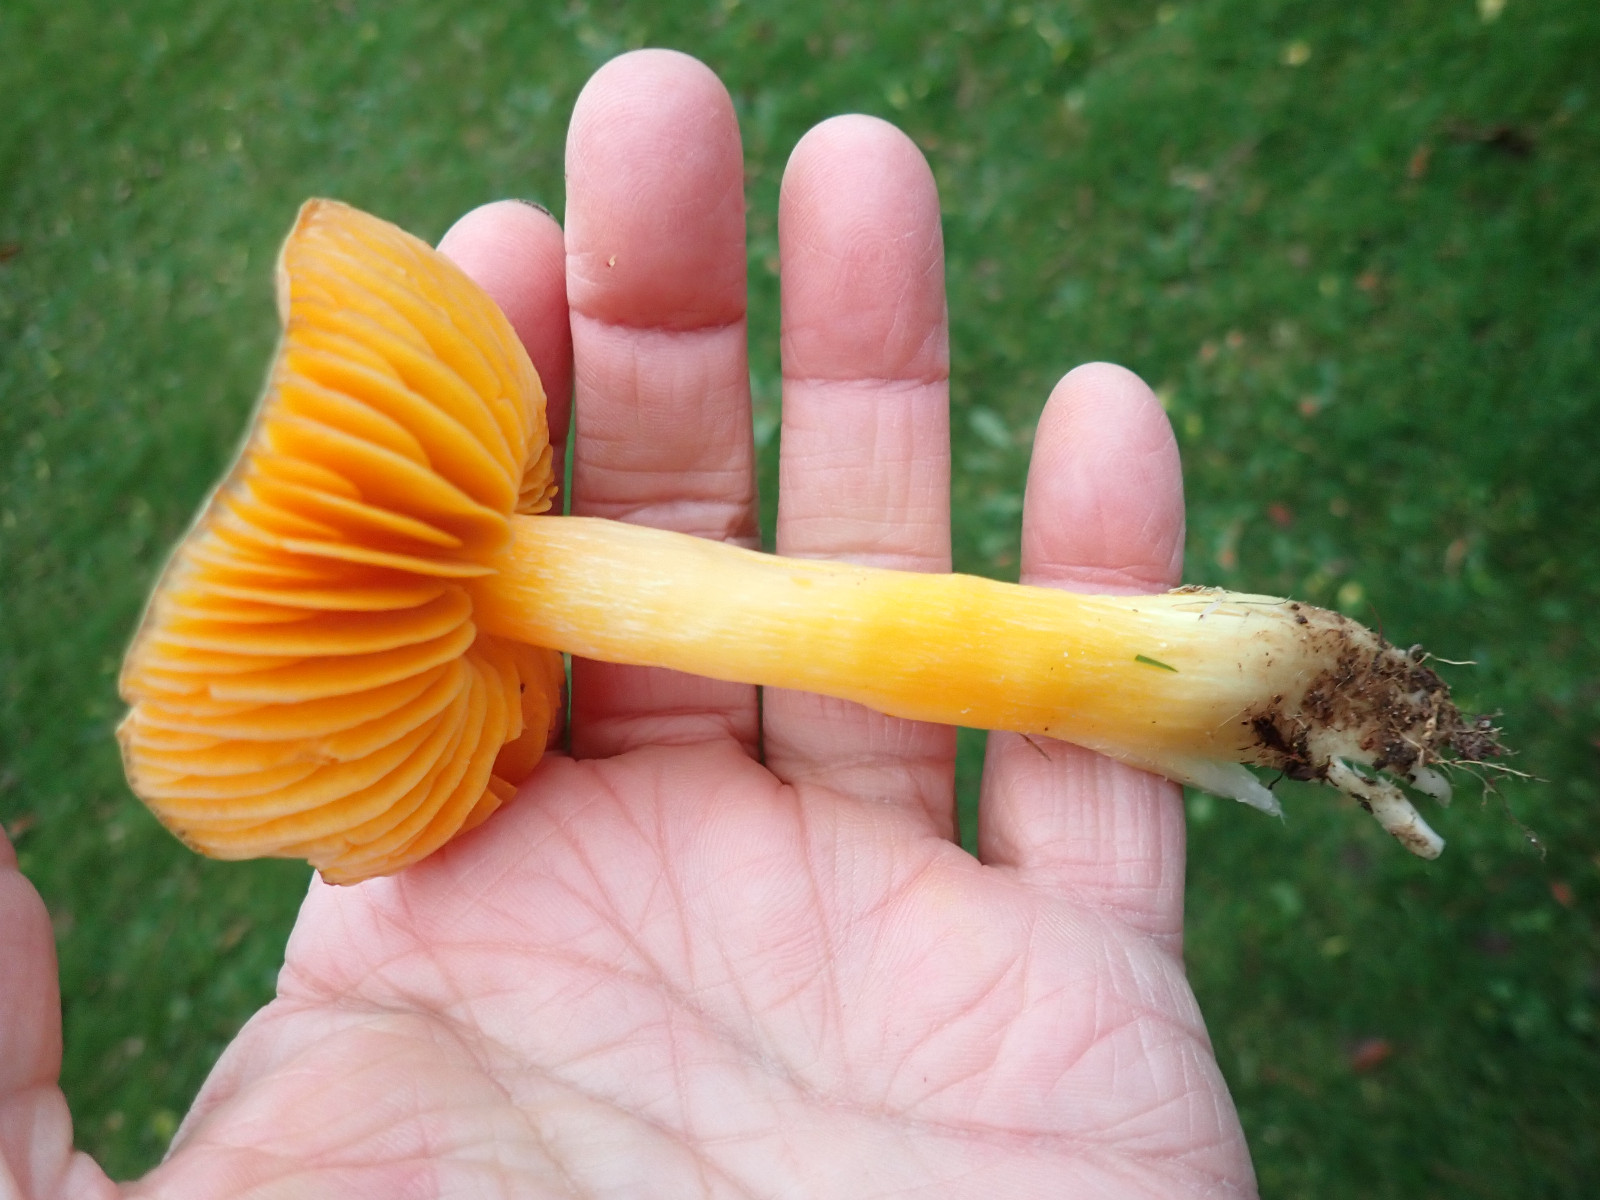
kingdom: Fungi
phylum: Basidiomycota
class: Agaricomycetes
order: Agaricales
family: Hygrophoraceae
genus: Hygrocybe
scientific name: Hygrocybe
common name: vokshat
